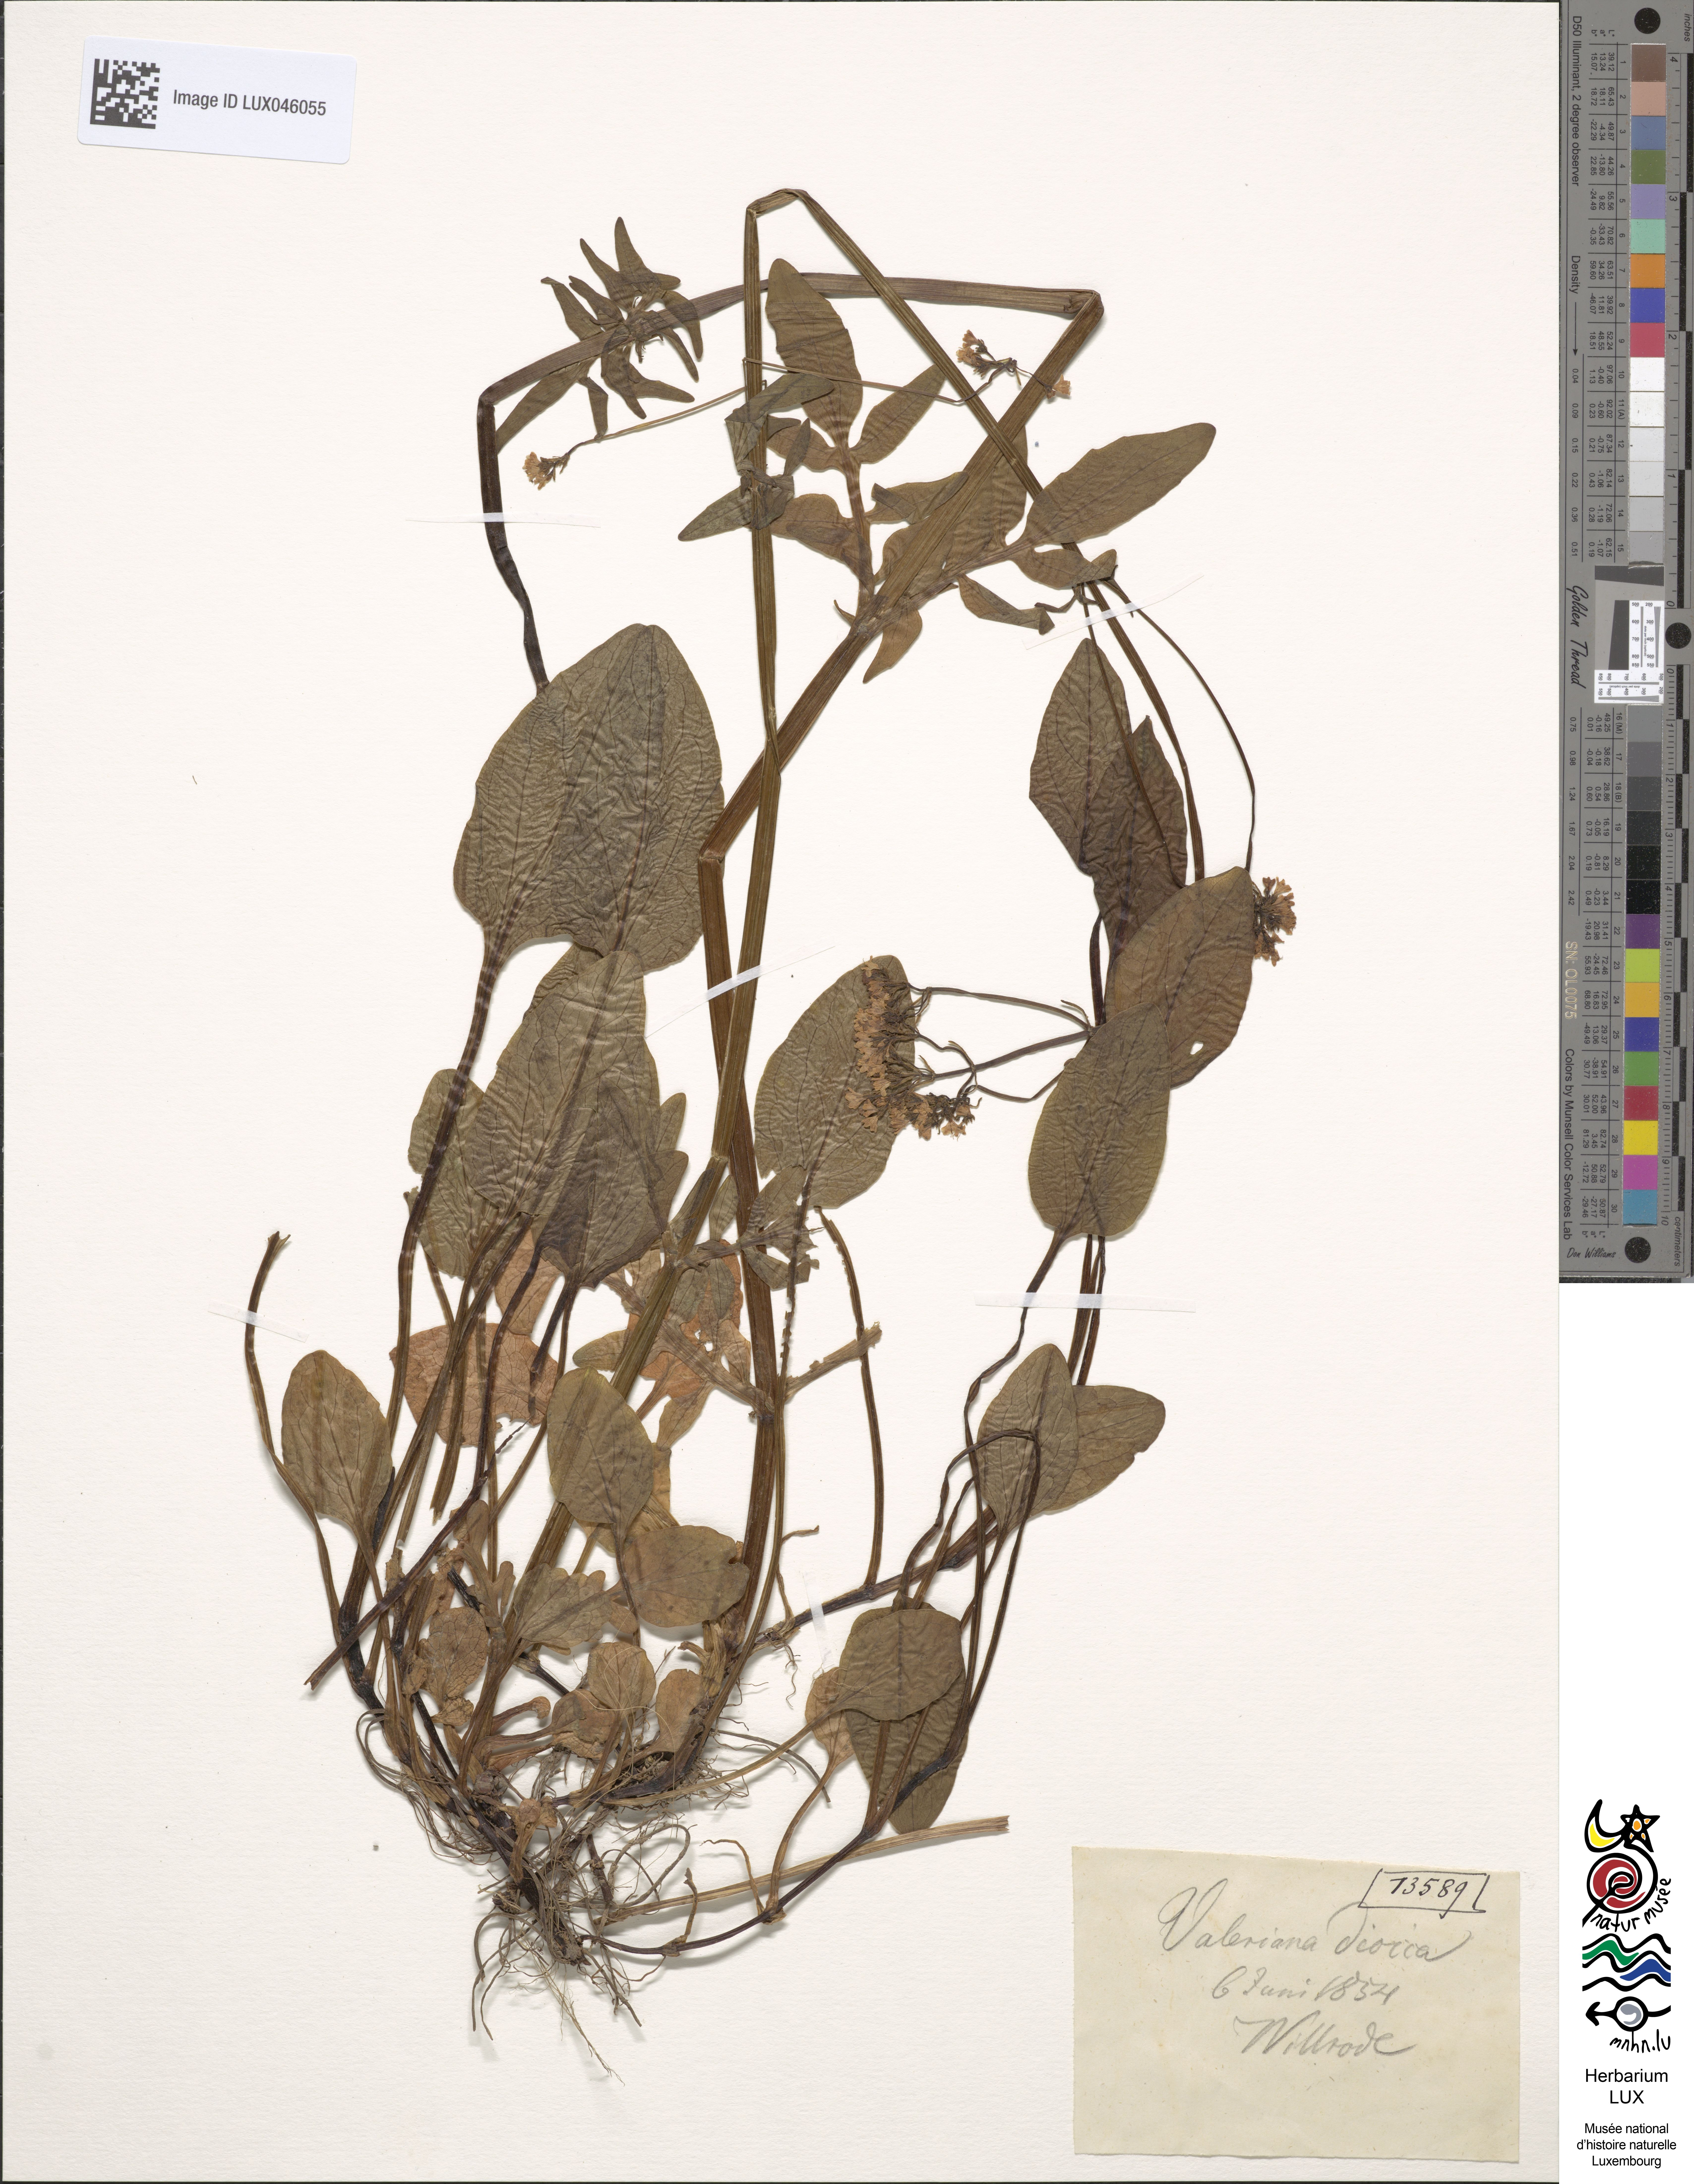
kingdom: Plantae
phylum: Tracheophyta
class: Magnoliopsida
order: Dipsacales
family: Caprifoliaceae
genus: Valeriana
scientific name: Valeriana dioica
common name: Marsh valerian
